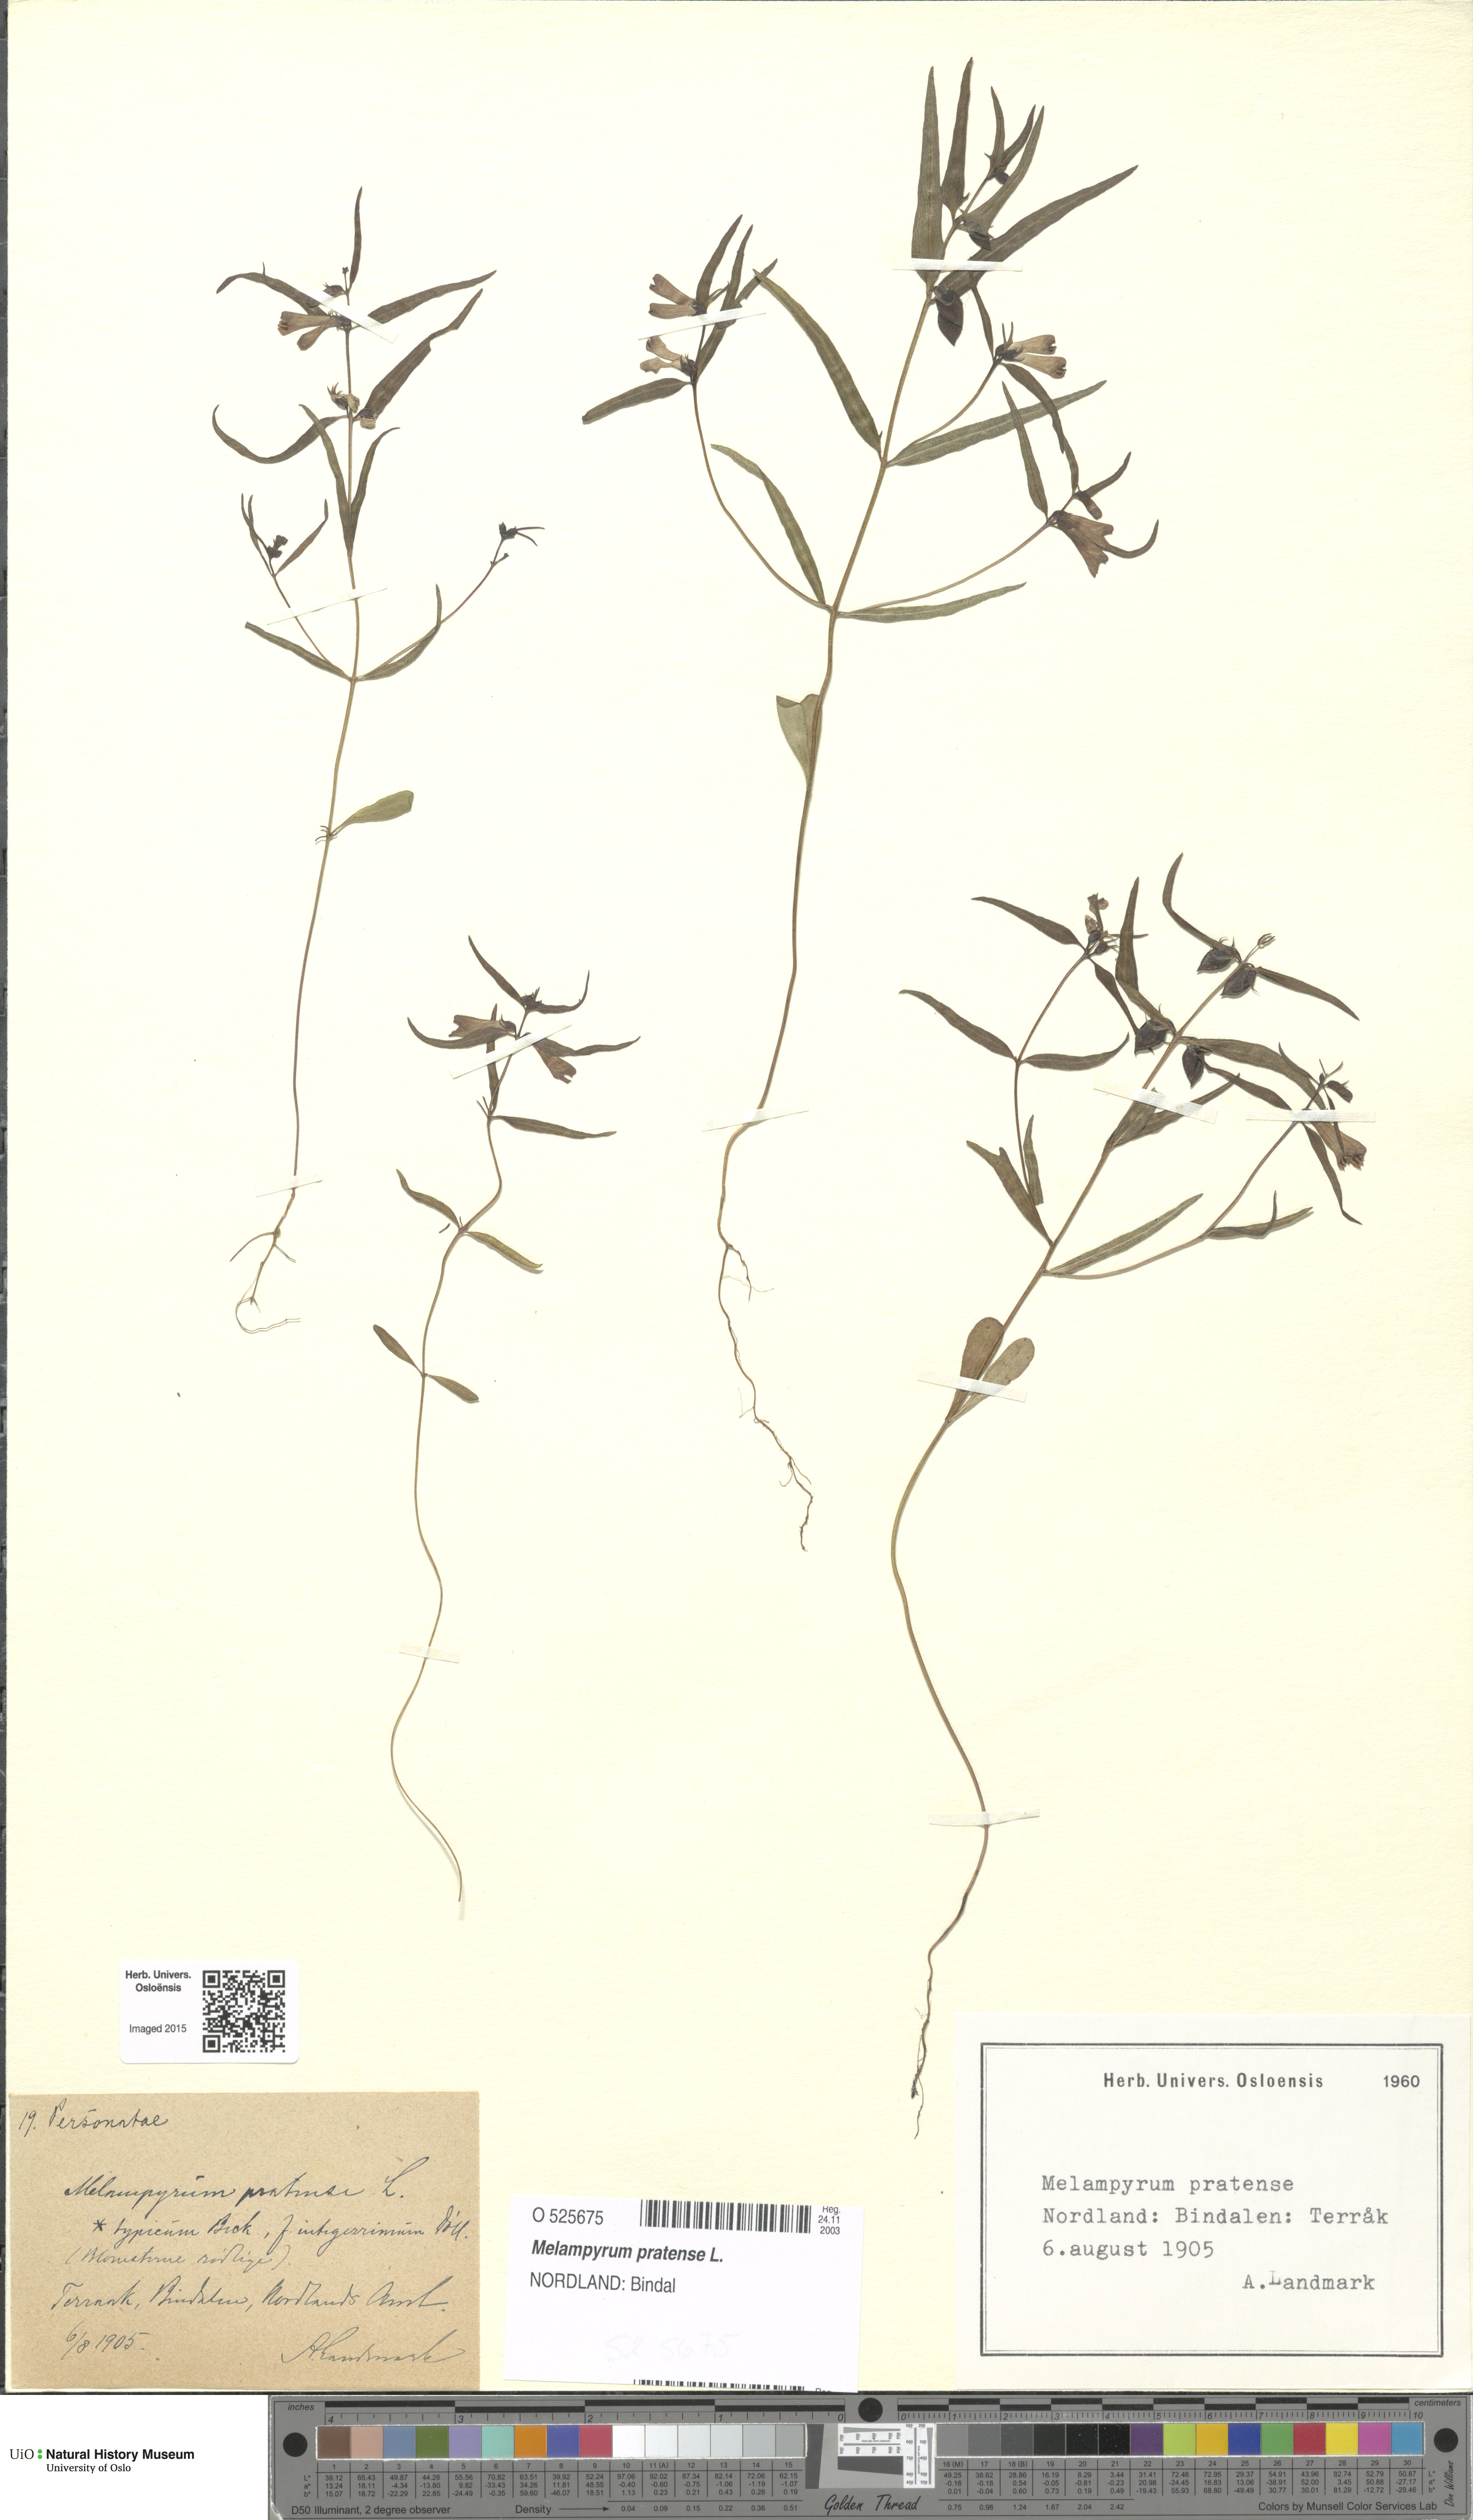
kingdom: Plantae
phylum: Tracheophyta
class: Magnoliopsida
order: Lamiales
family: Orobanchaceae
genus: Melampyrum
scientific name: Melampyrum pratense
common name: Common cow-wheat
